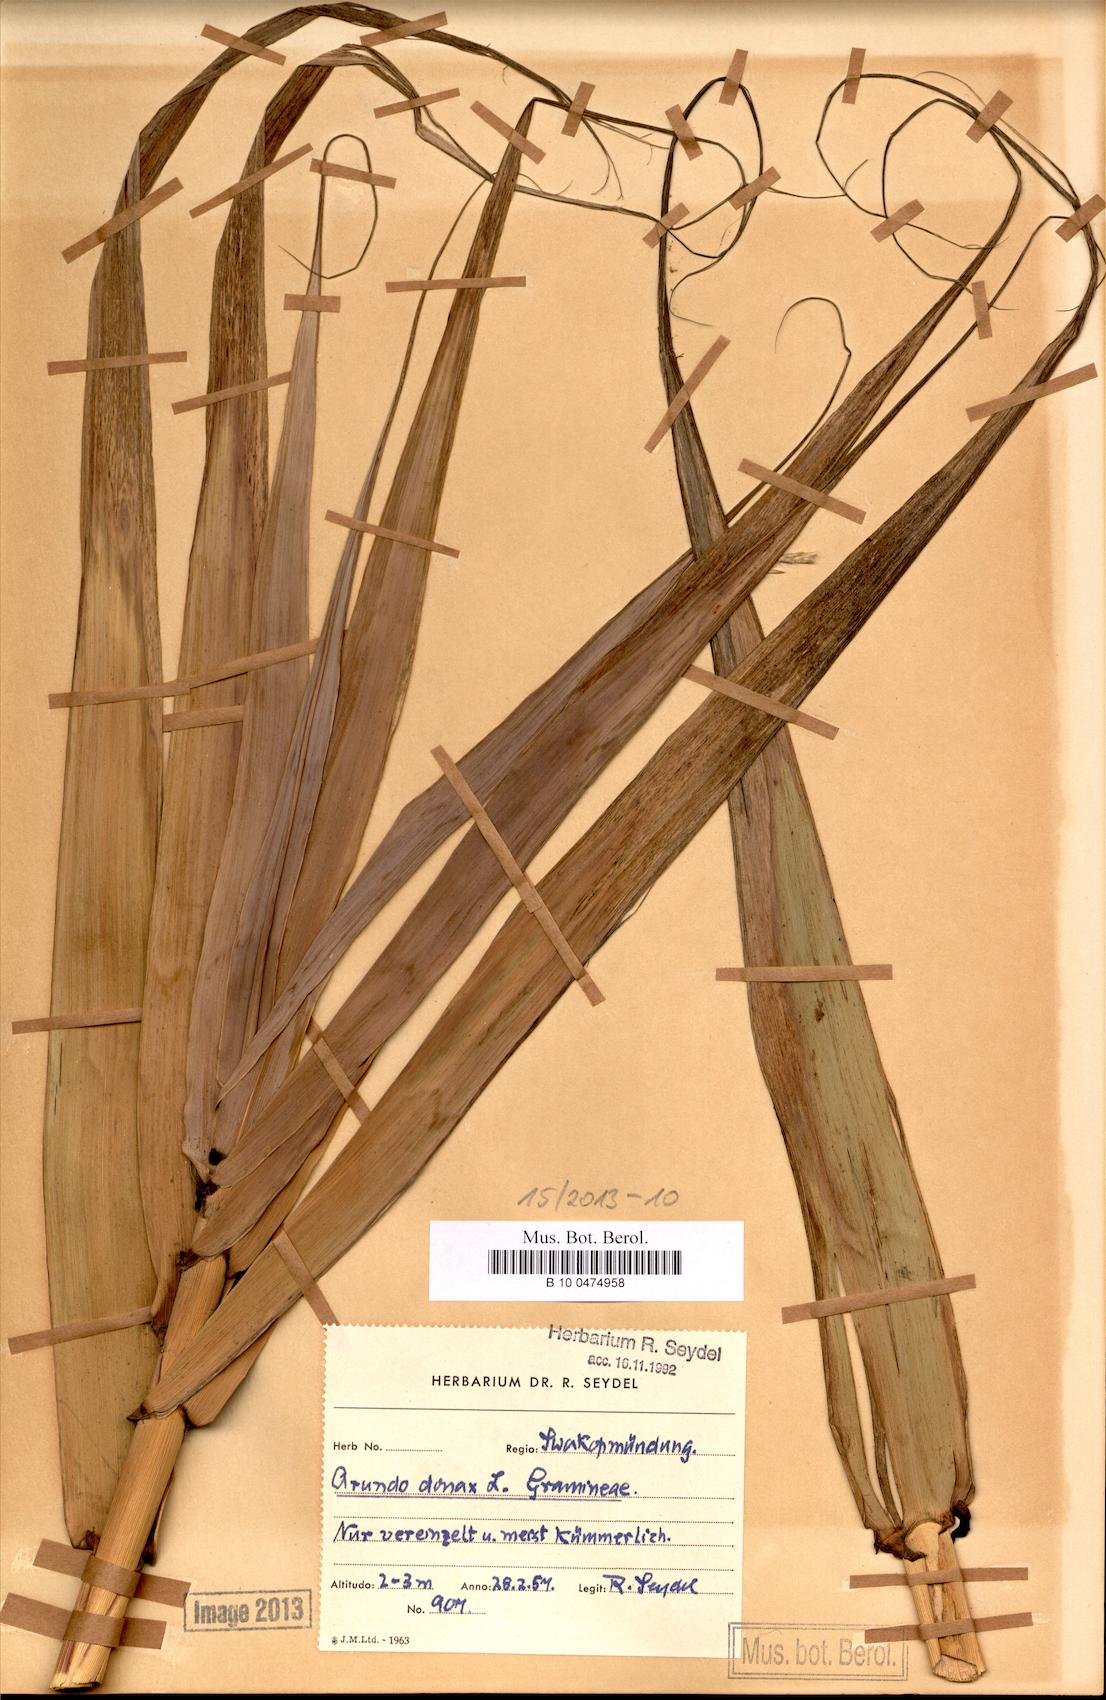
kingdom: Plantae
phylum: Tracheophyta
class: Liliopsida
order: Poales
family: Poaceae
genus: Arundo
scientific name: Arundo donax
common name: Giant reed
